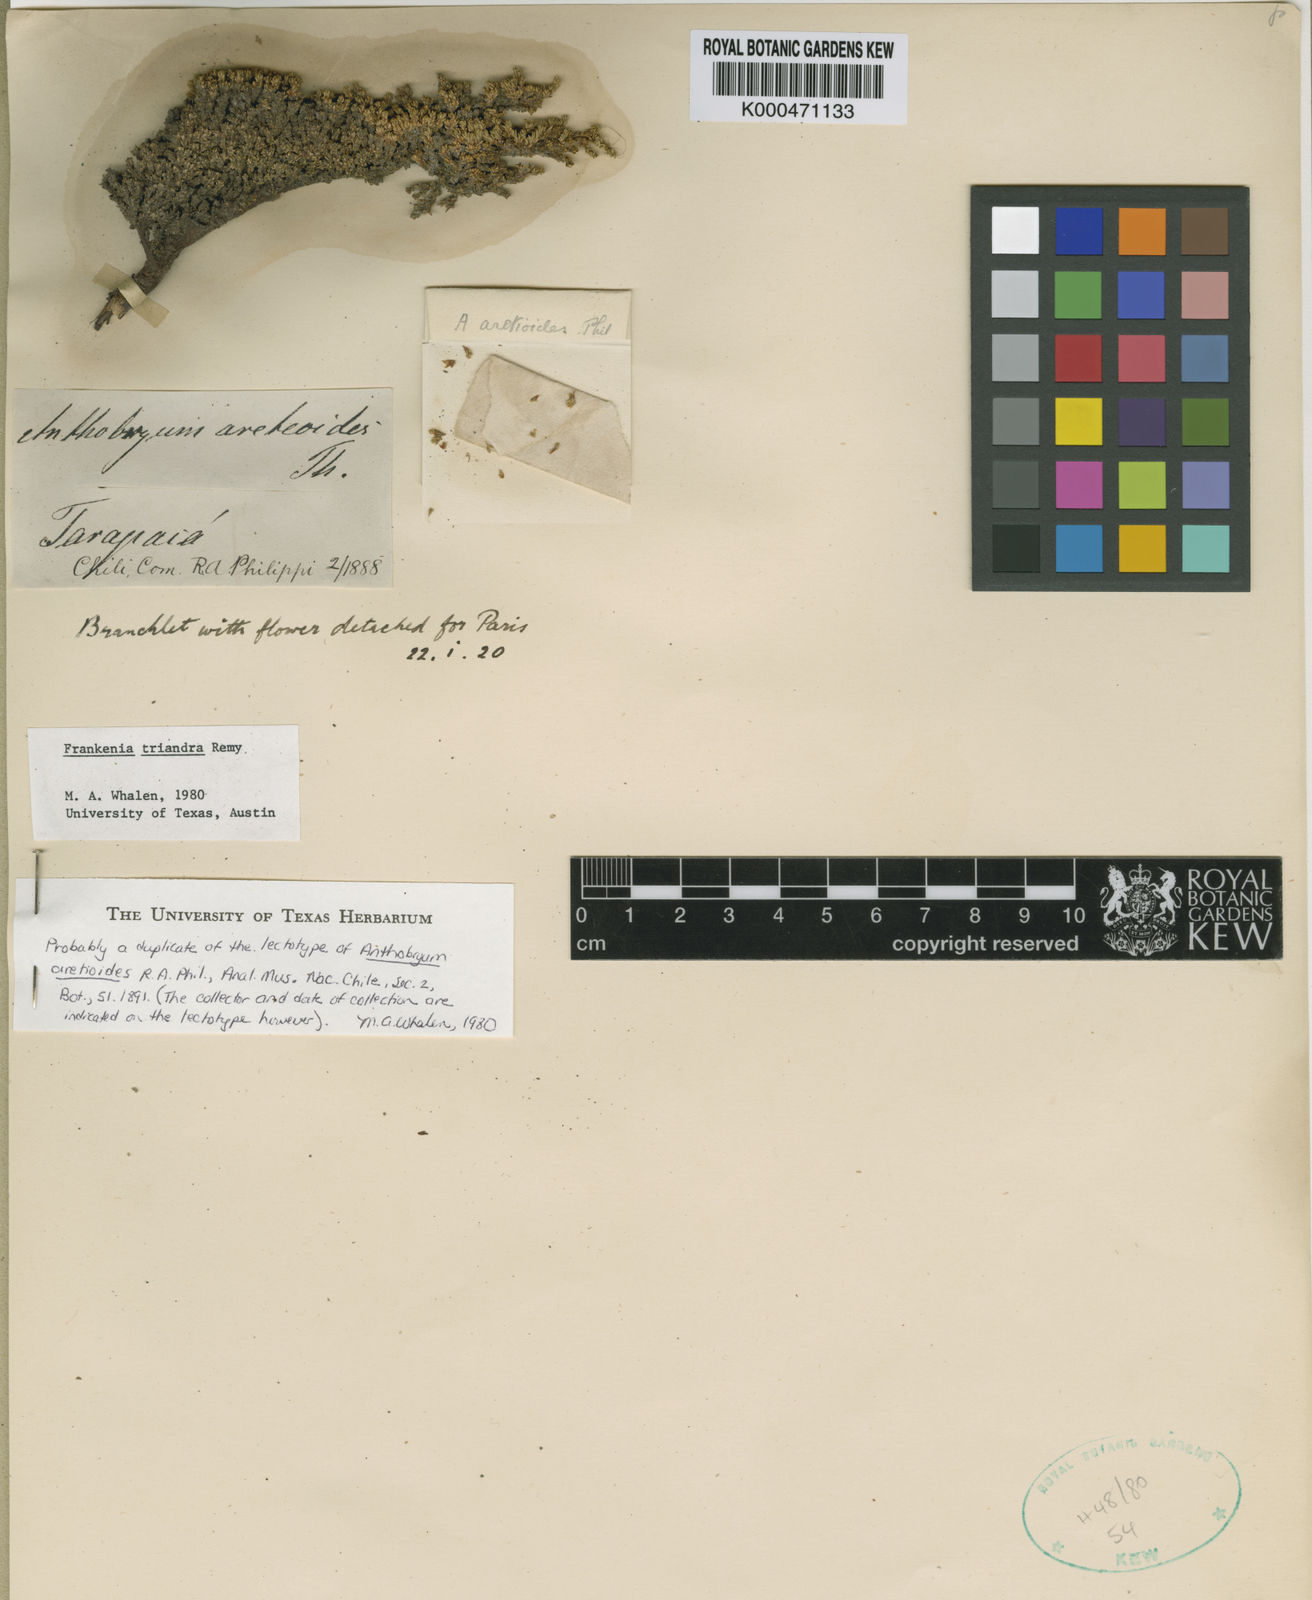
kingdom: Plantae
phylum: Tracheophyta
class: Magnoliopsida
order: Caryophyllales
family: Frankeniaceae
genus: Frankenia
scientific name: Frankenia
